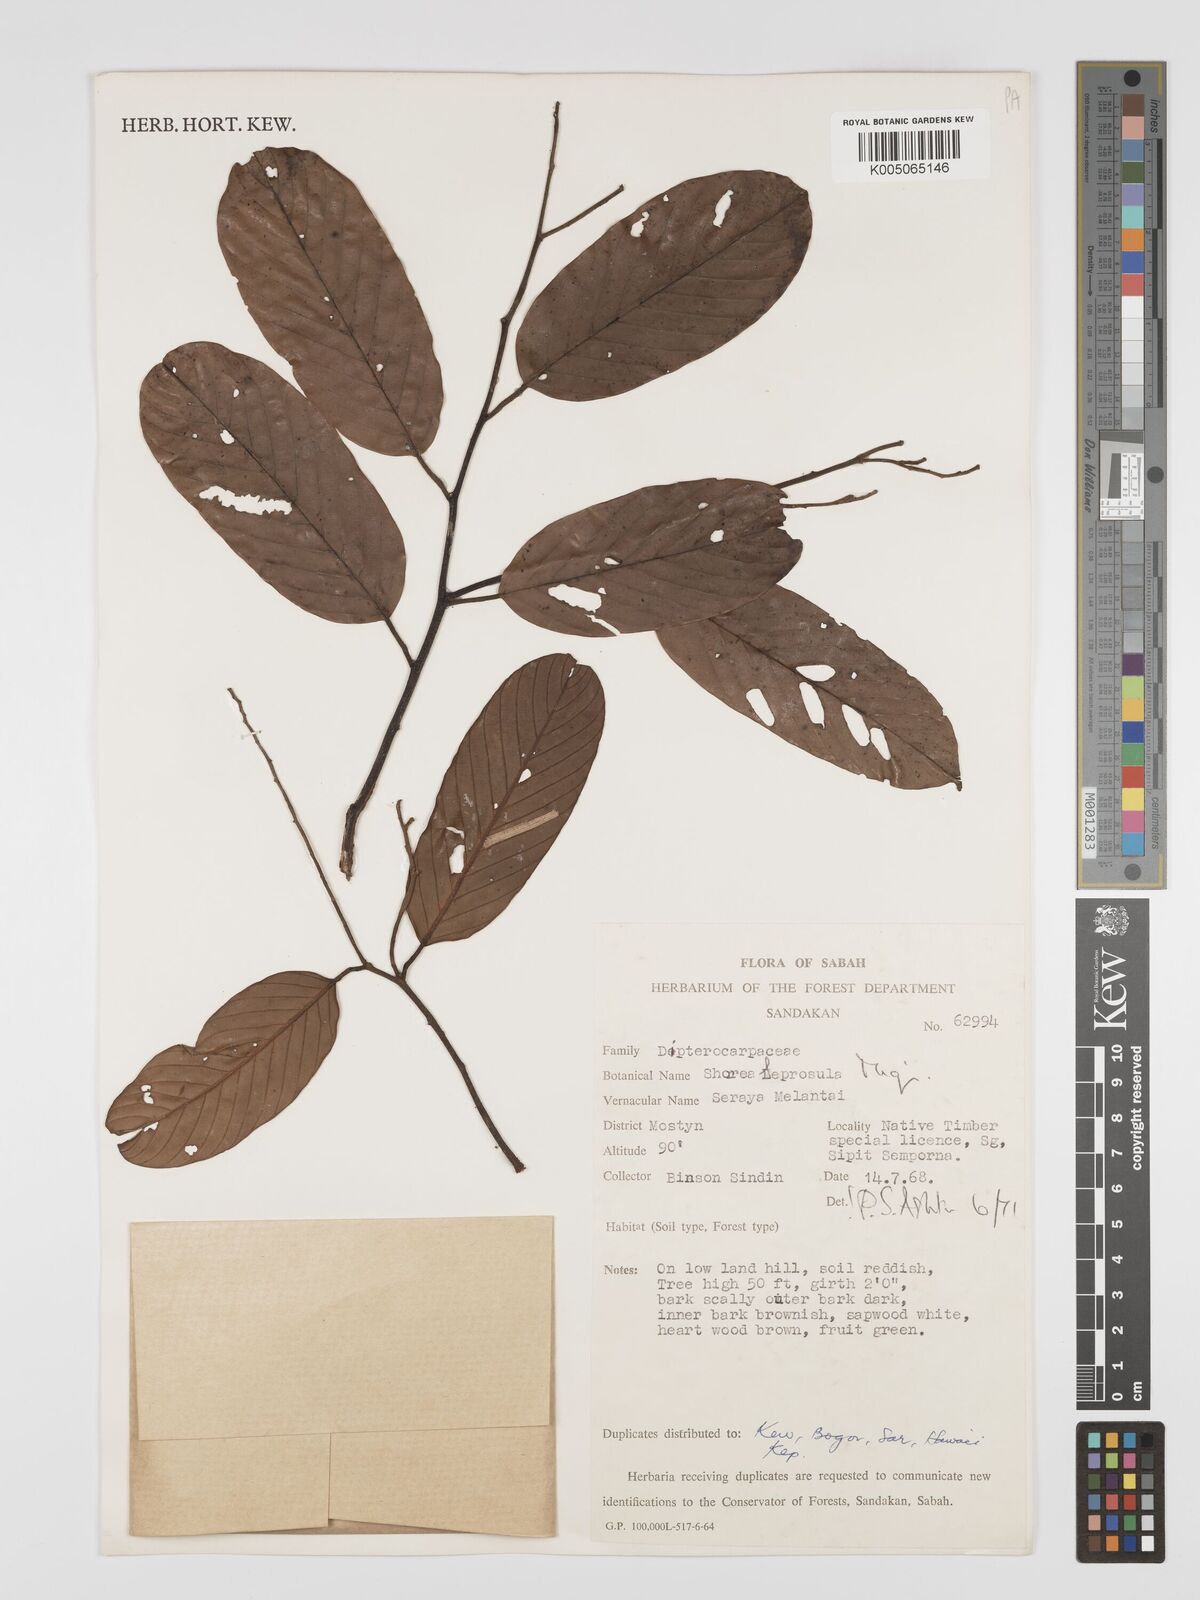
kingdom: Plantae
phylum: Tracheophyta
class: Magnoliopsida
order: Malvales
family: Dipterocarpaceae
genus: Shorea
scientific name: Shorea leprosula
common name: Light red meranti
